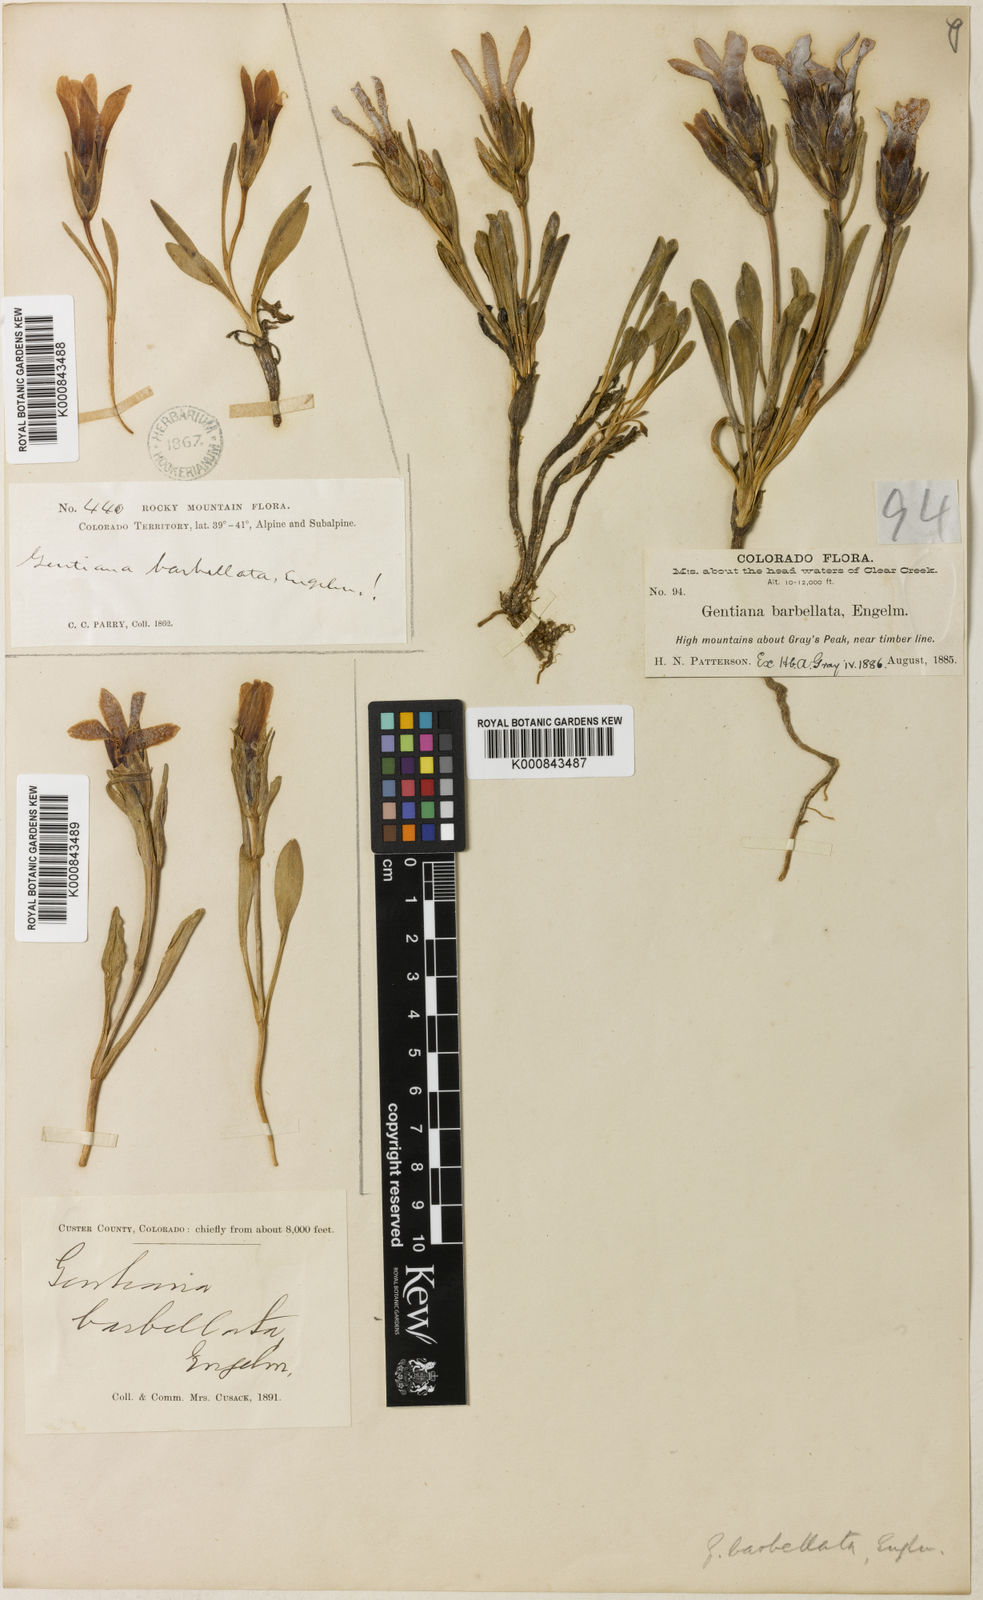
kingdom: Plantae
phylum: Tracheophyta
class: Magnoliopsida
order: Gentianales
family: Gentianaceae
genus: Gentianopsis
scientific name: Gentianopsis
